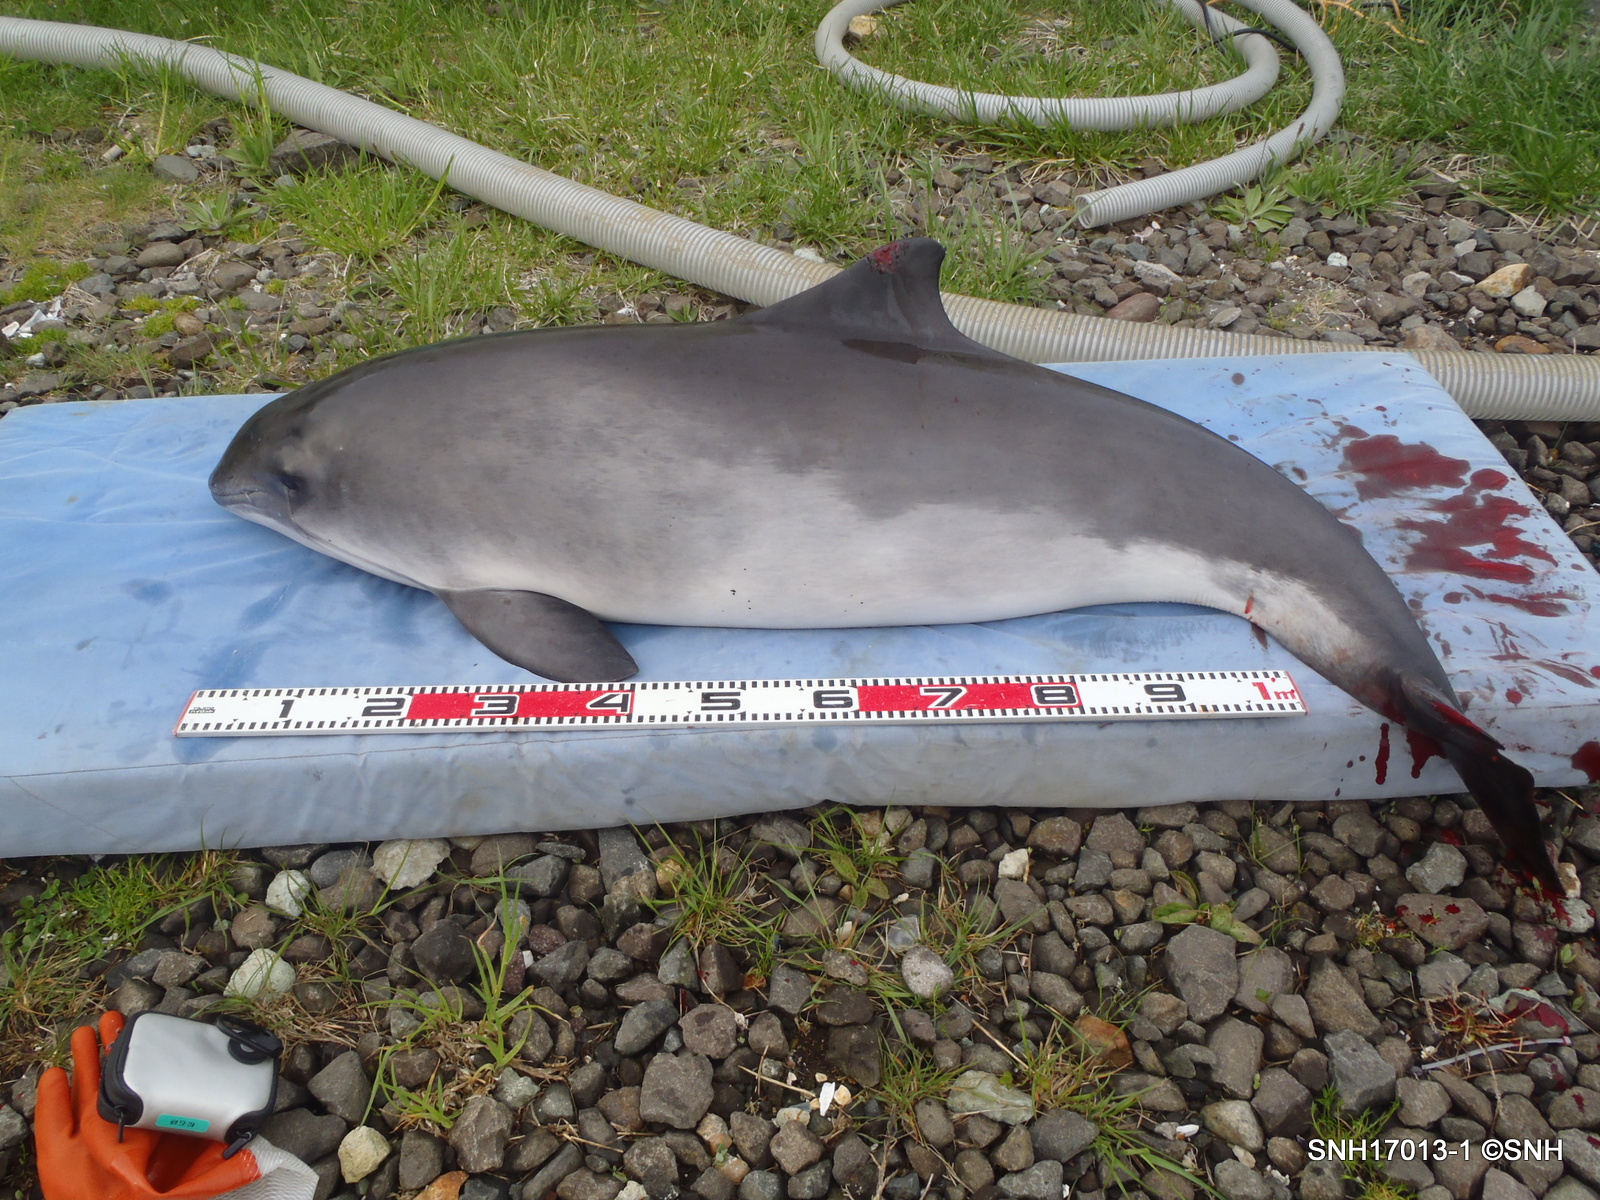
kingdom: Animalia
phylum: Chordata
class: Mammalia
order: Cetacea
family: Phocoenidae
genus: Phocoena
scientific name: Phocoena phocoena
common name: Harbour porpoise
